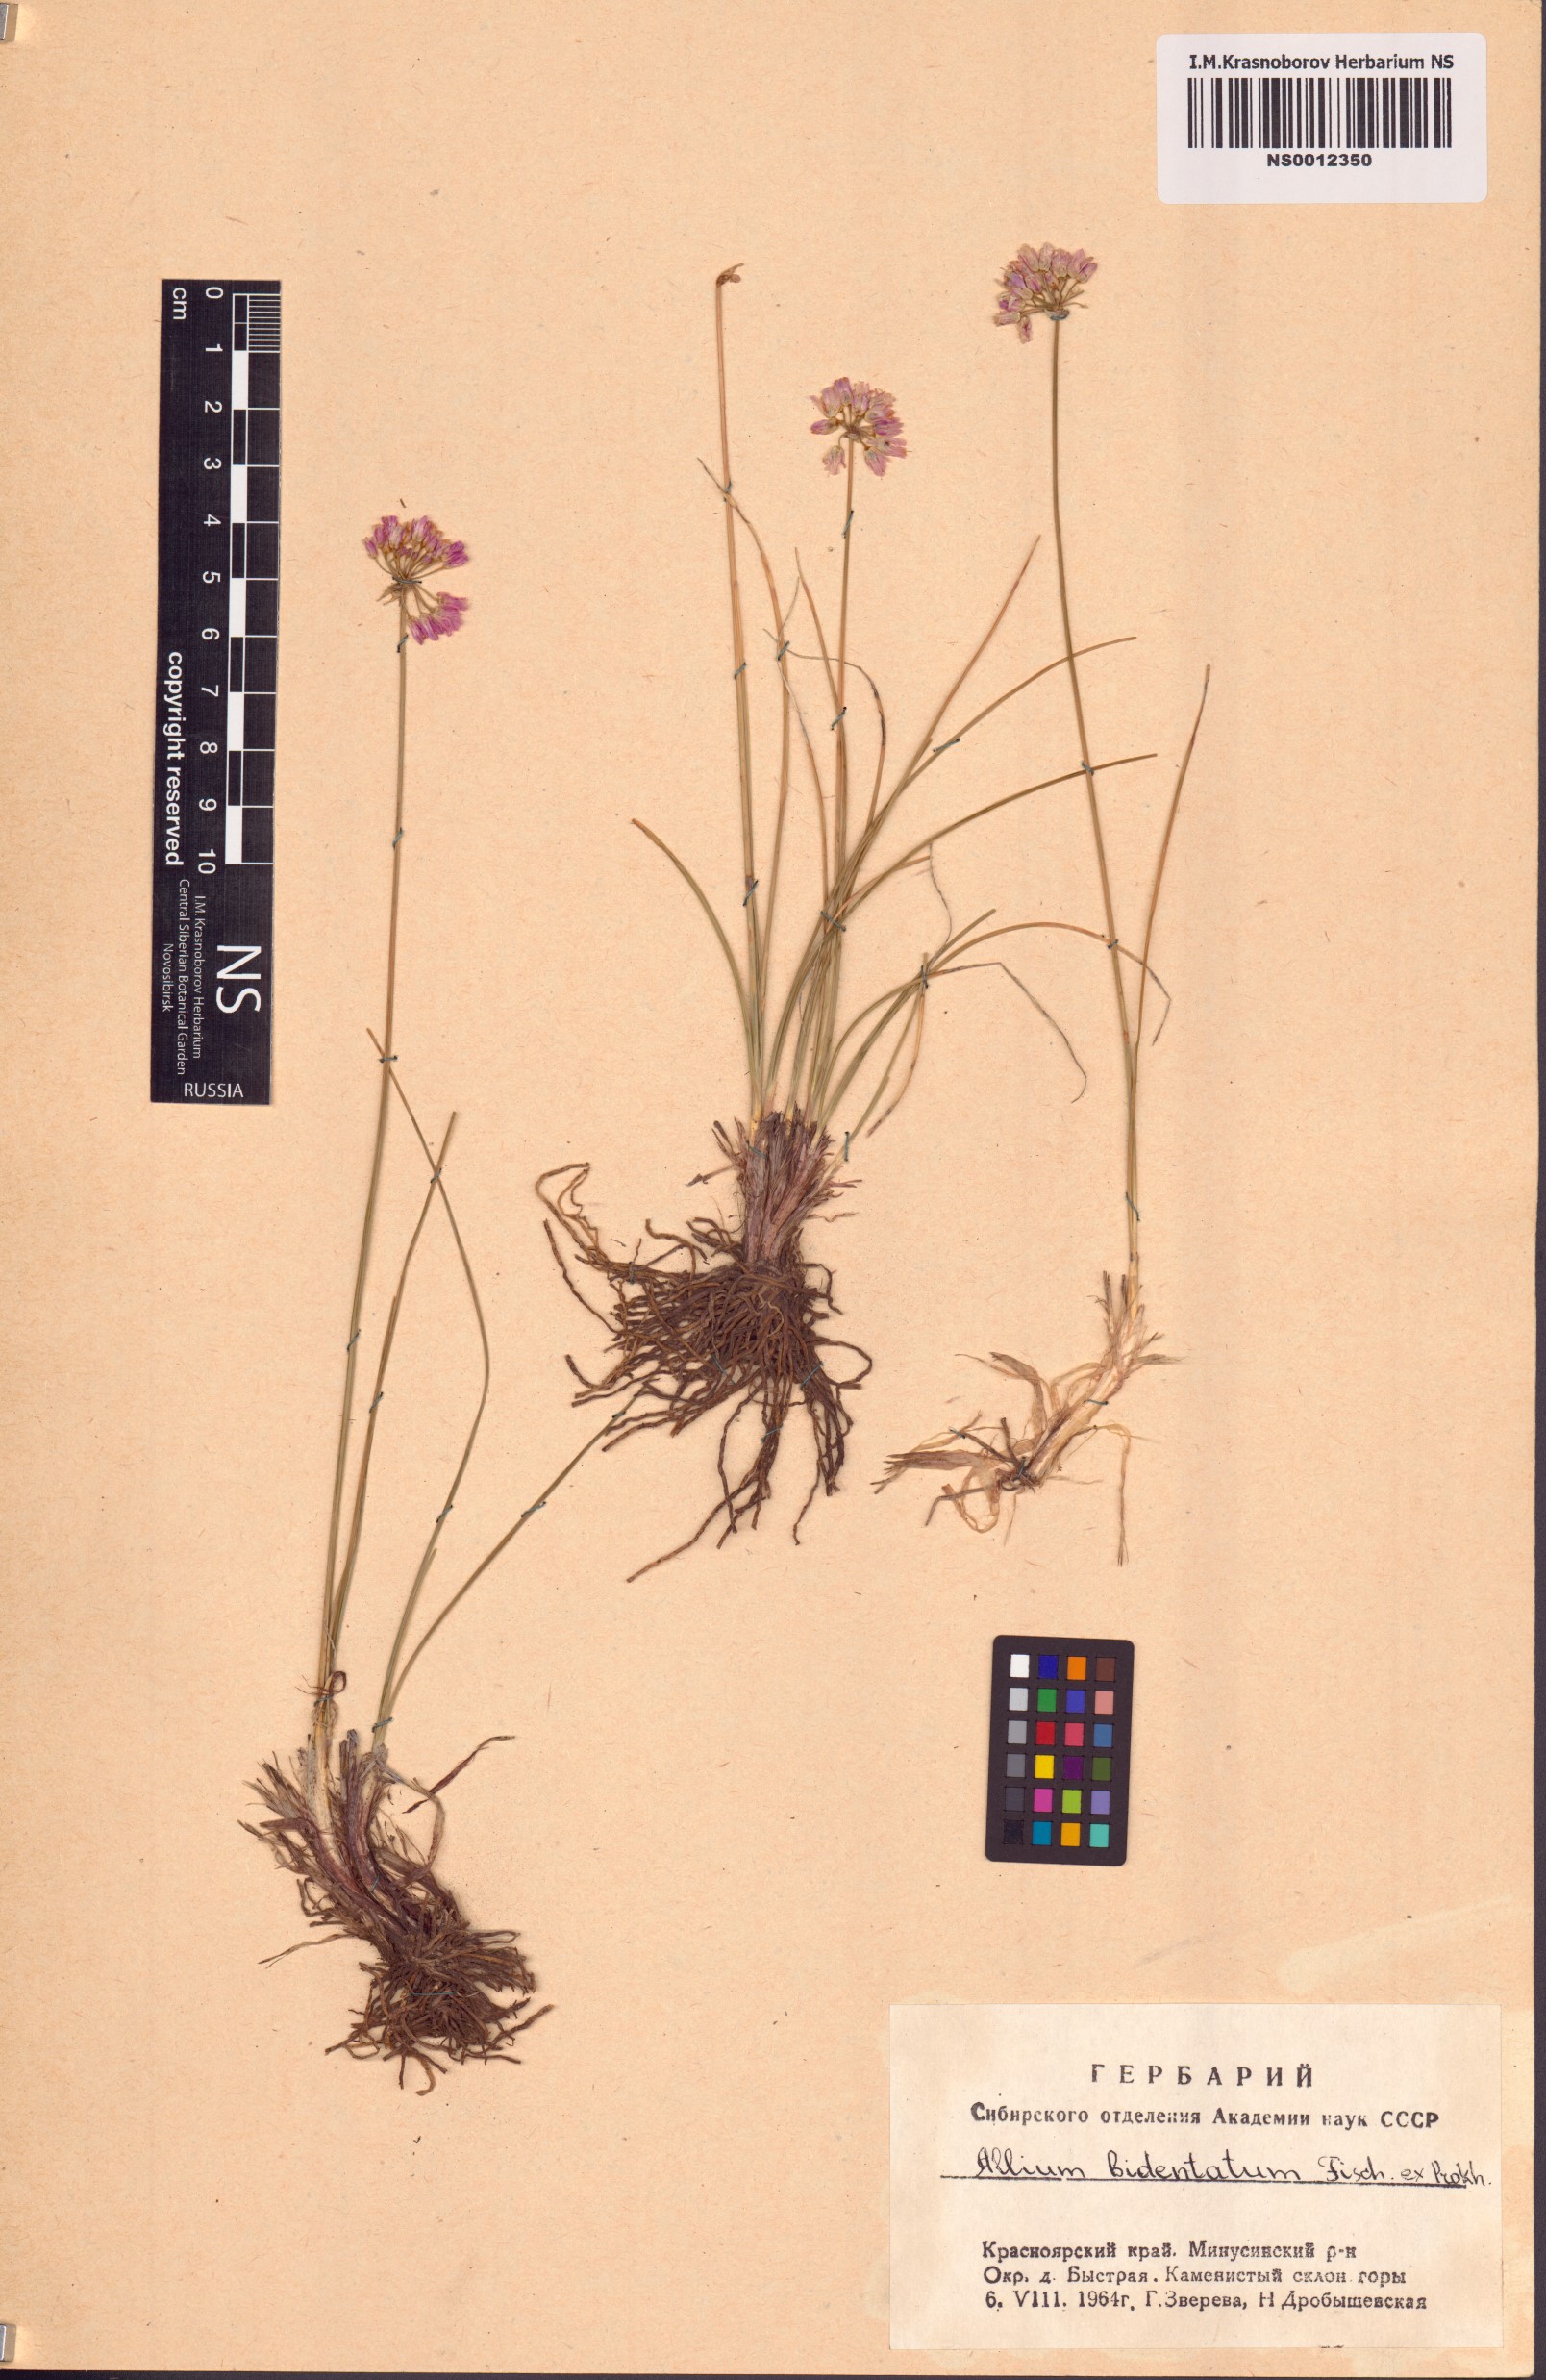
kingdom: Plantae
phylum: Tracheophyta
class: Liliopsida
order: Asparagales
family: Amaryllidaceae
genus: Allium
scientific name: Allium bidentatum
